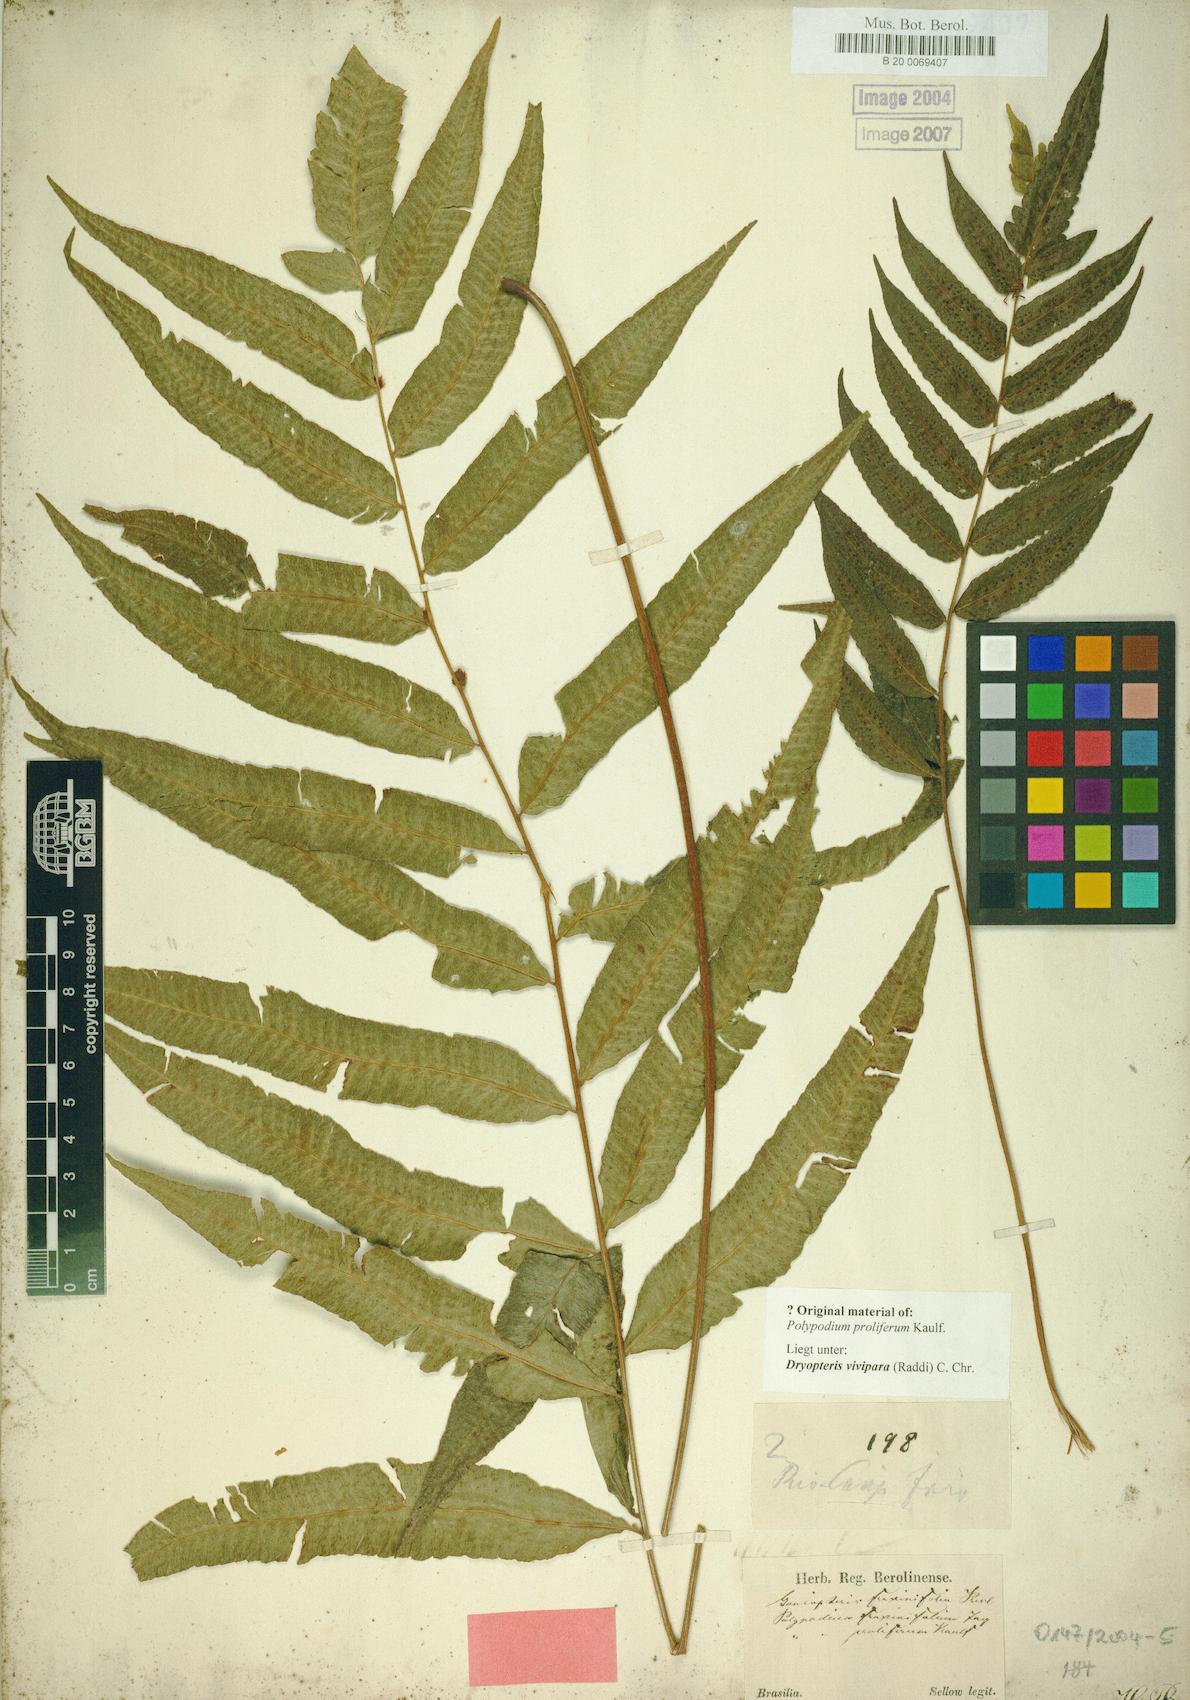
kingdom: Plantae
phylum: Tracheophyta
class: Polypodiopsida
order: Polypodiales
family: Thelypteridaceae
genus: Goniopteris
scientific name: Goniopteris vivipara
